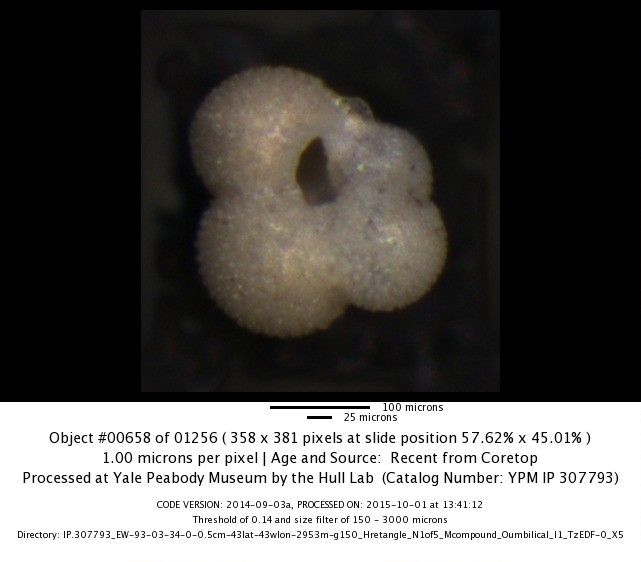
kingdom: Chromista
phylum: Foraminifera
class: Globothalamea
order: Rotaliida
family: Globigerinidae
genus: Globigerina
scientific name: Globigerina bulloides
